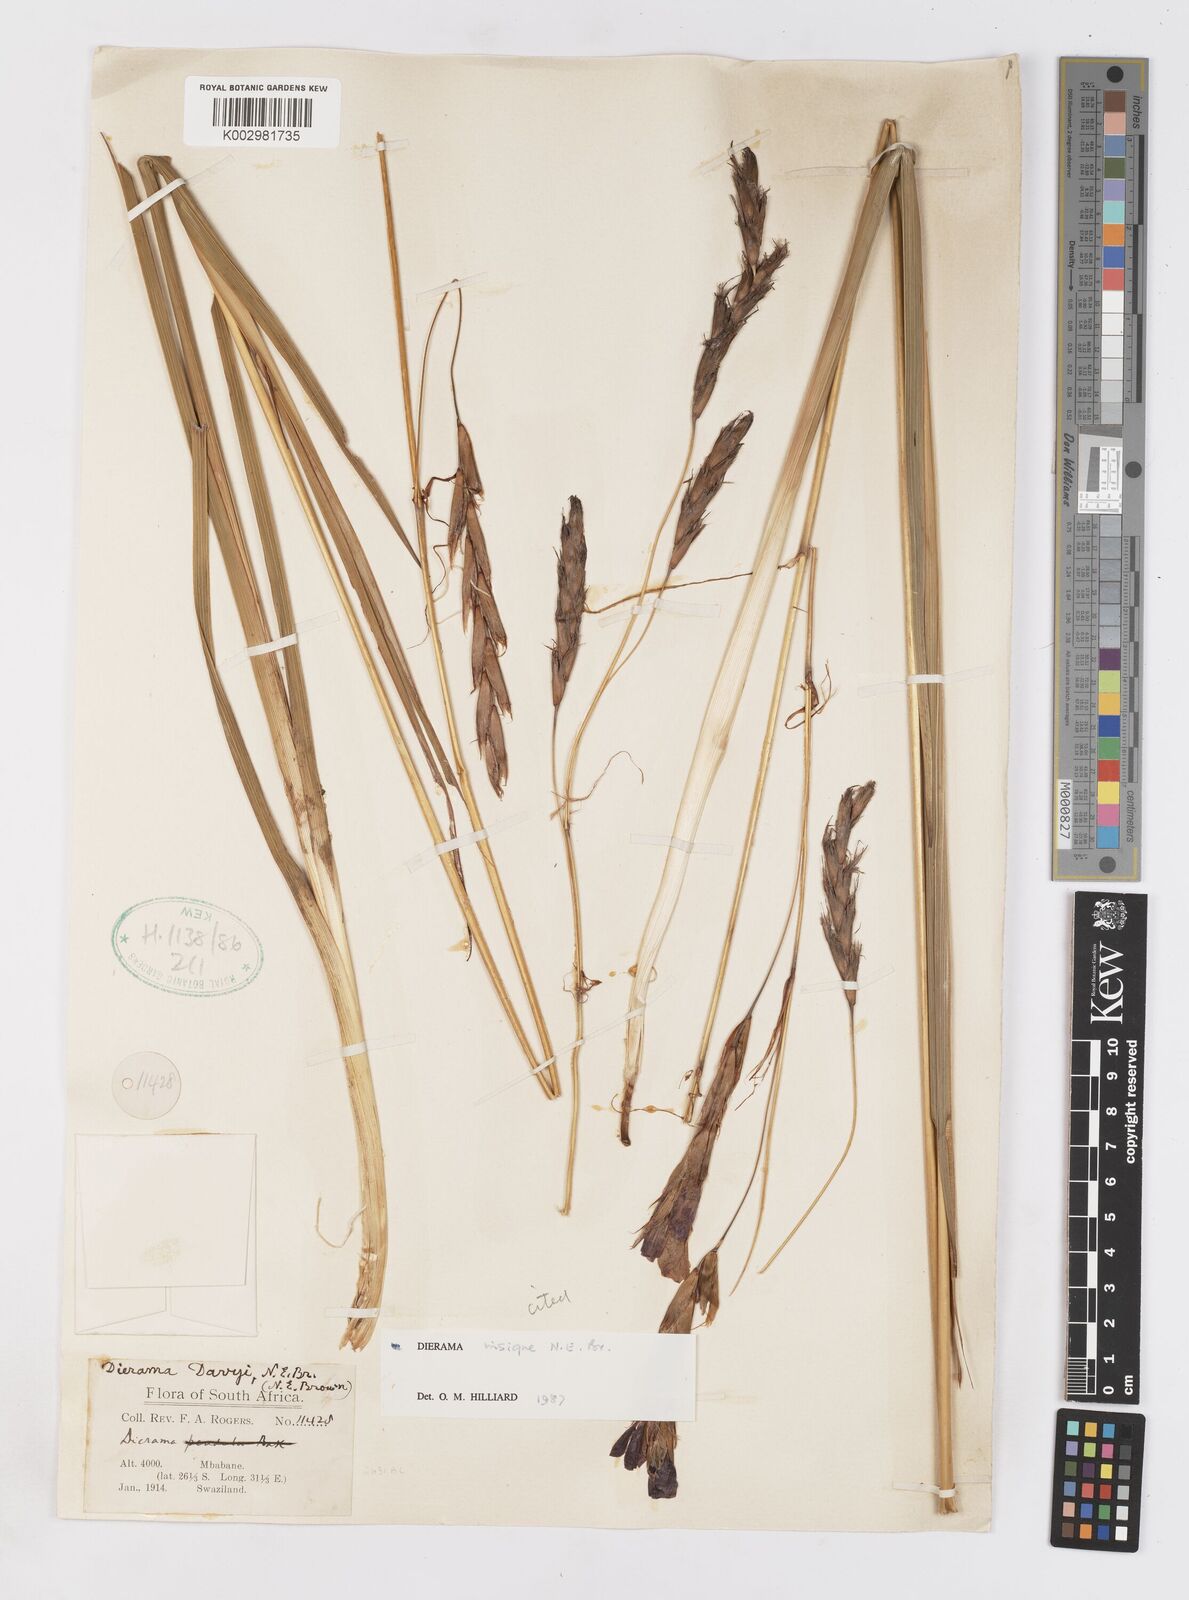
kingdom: Plantae
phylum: Tracheophyta
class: Liliopsida
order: Asparagales
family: Iridaceae
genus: Dierama
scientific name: Dierama insigne
